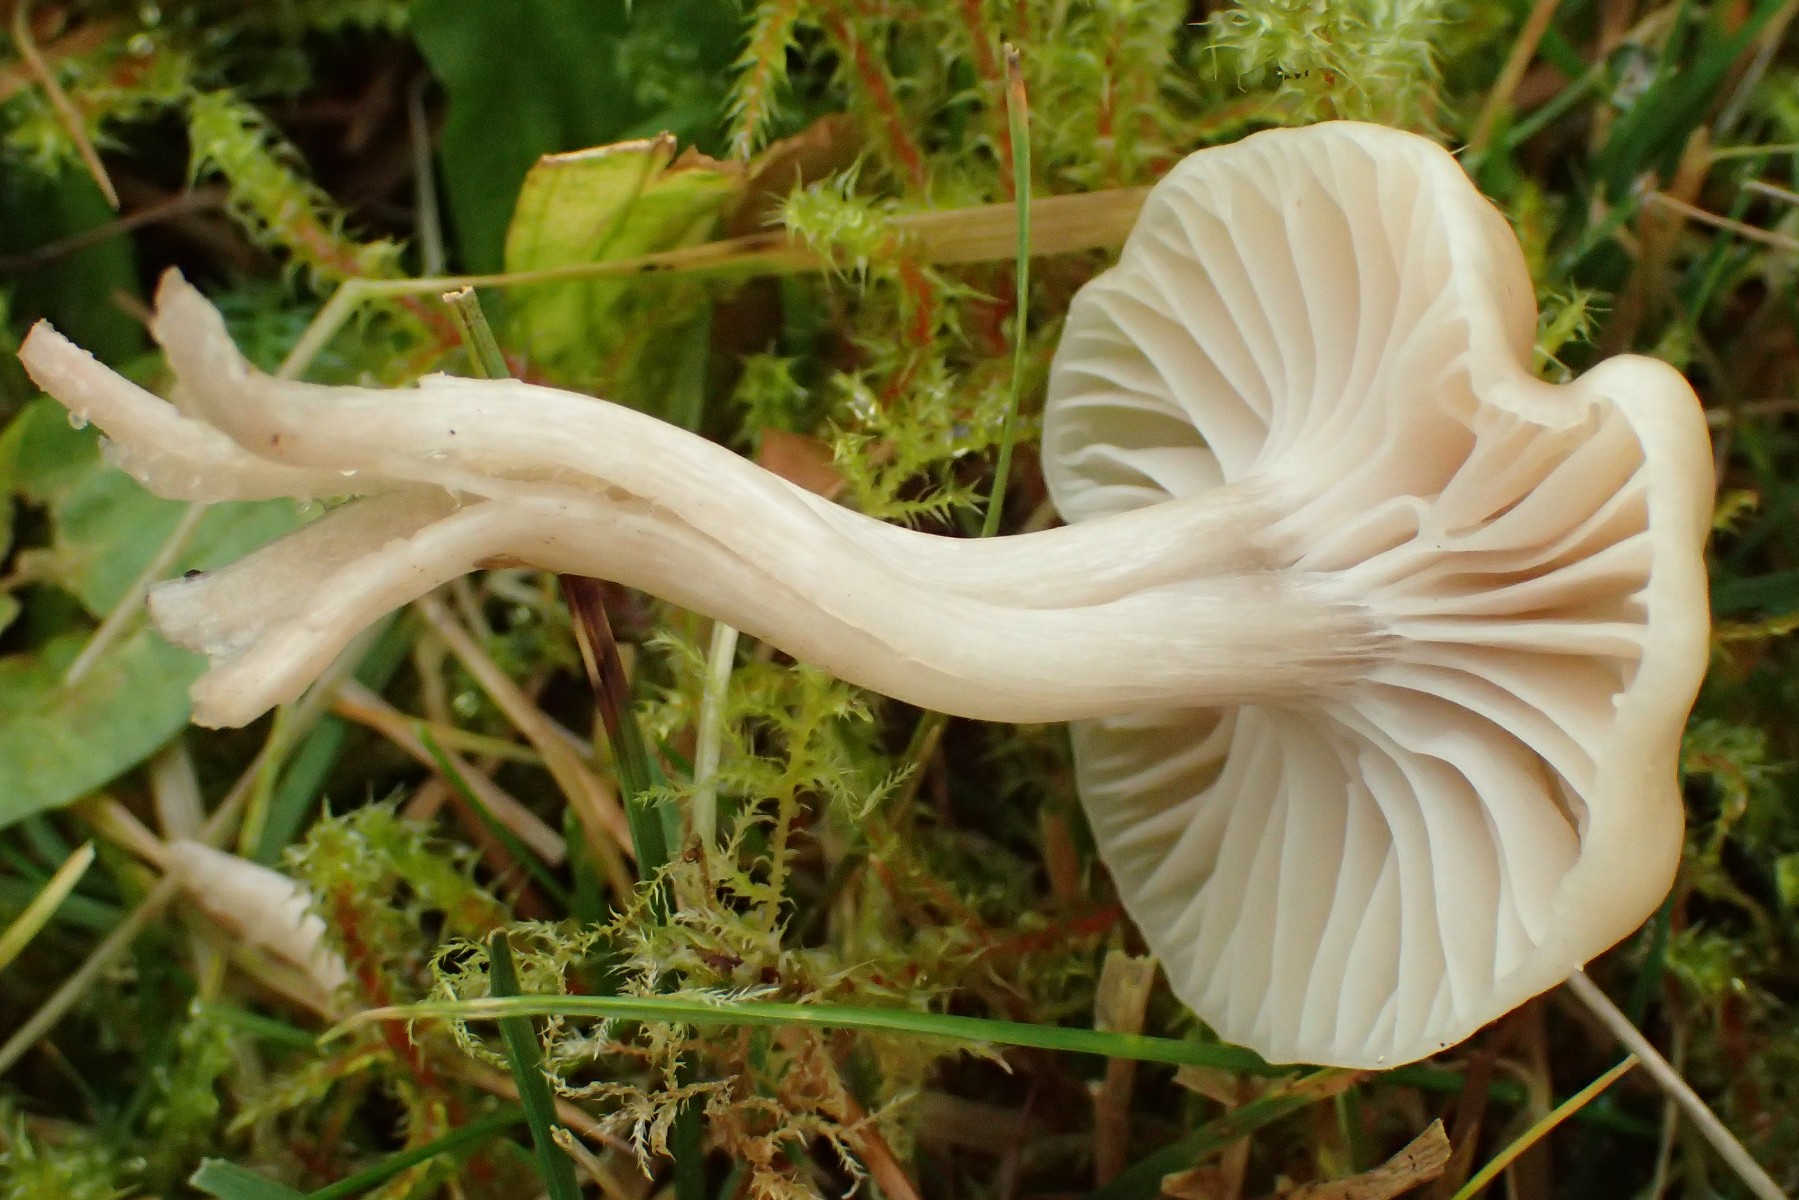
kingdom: Fungi
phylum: Basidiomycota
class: Agaricomycetes
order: Agaricales
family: Hygrophoraceae
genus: Cuphophyllus
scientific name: Cuphophyllus virgineus
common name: isabella-vokshat
